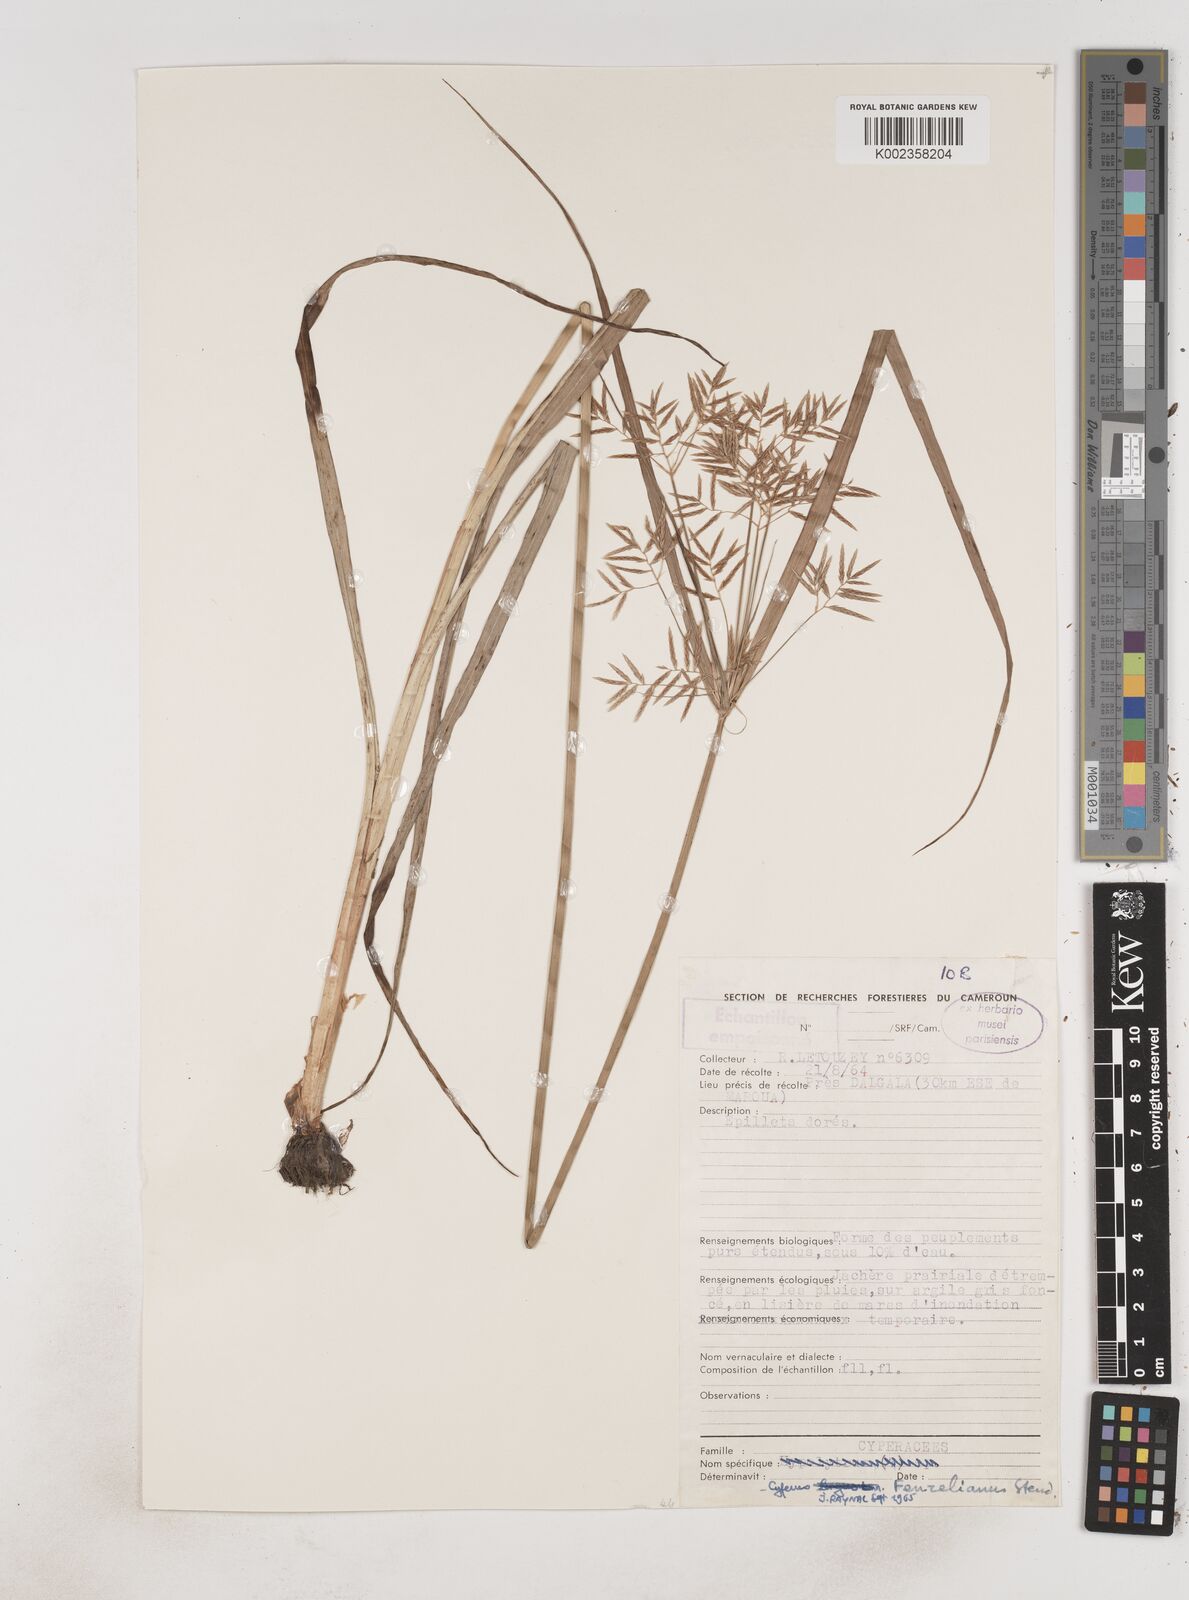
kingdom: Plantae
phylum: Tracheophyta
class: Liliopsida
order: Poales
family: Cyperaceae
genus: Cyperus
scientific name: Cyperus longus
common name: Galingale
